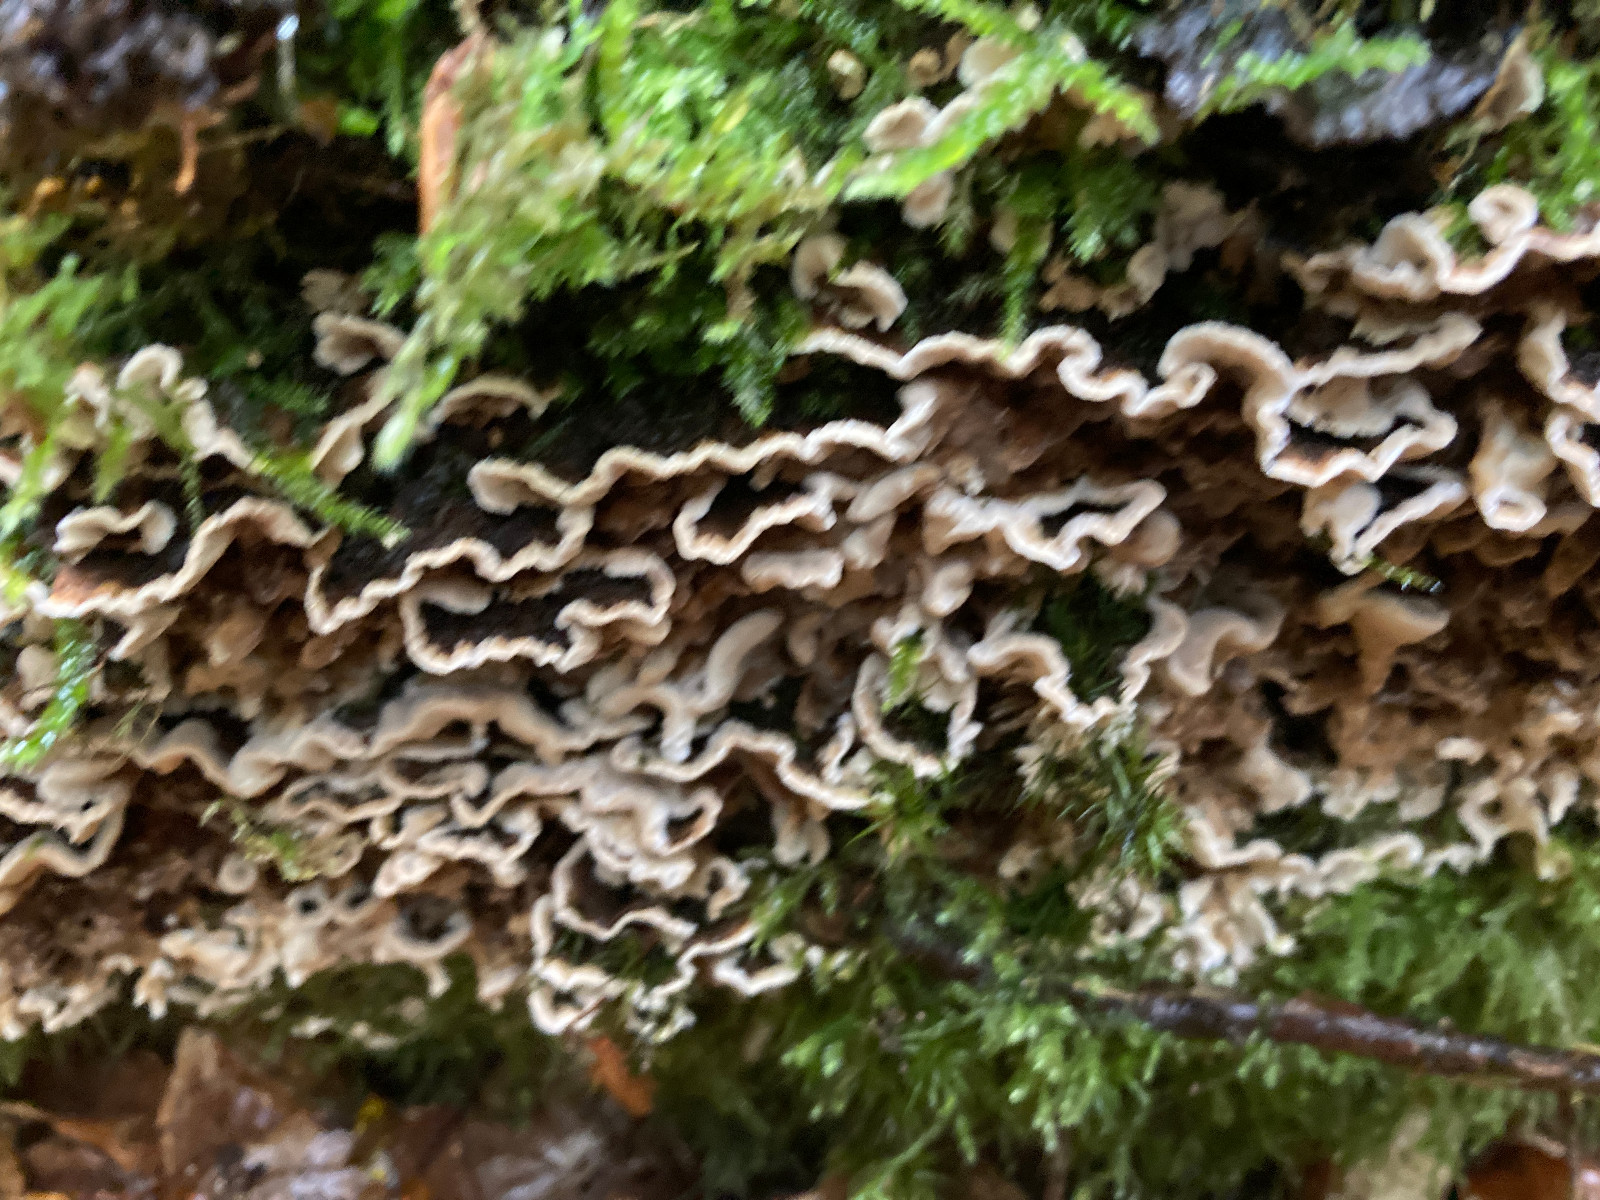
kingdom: Fungi
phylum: Basidiomycota
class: Agaricomycetes
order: Corticiales
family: Corticiaceae
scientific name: Corticiaceae
